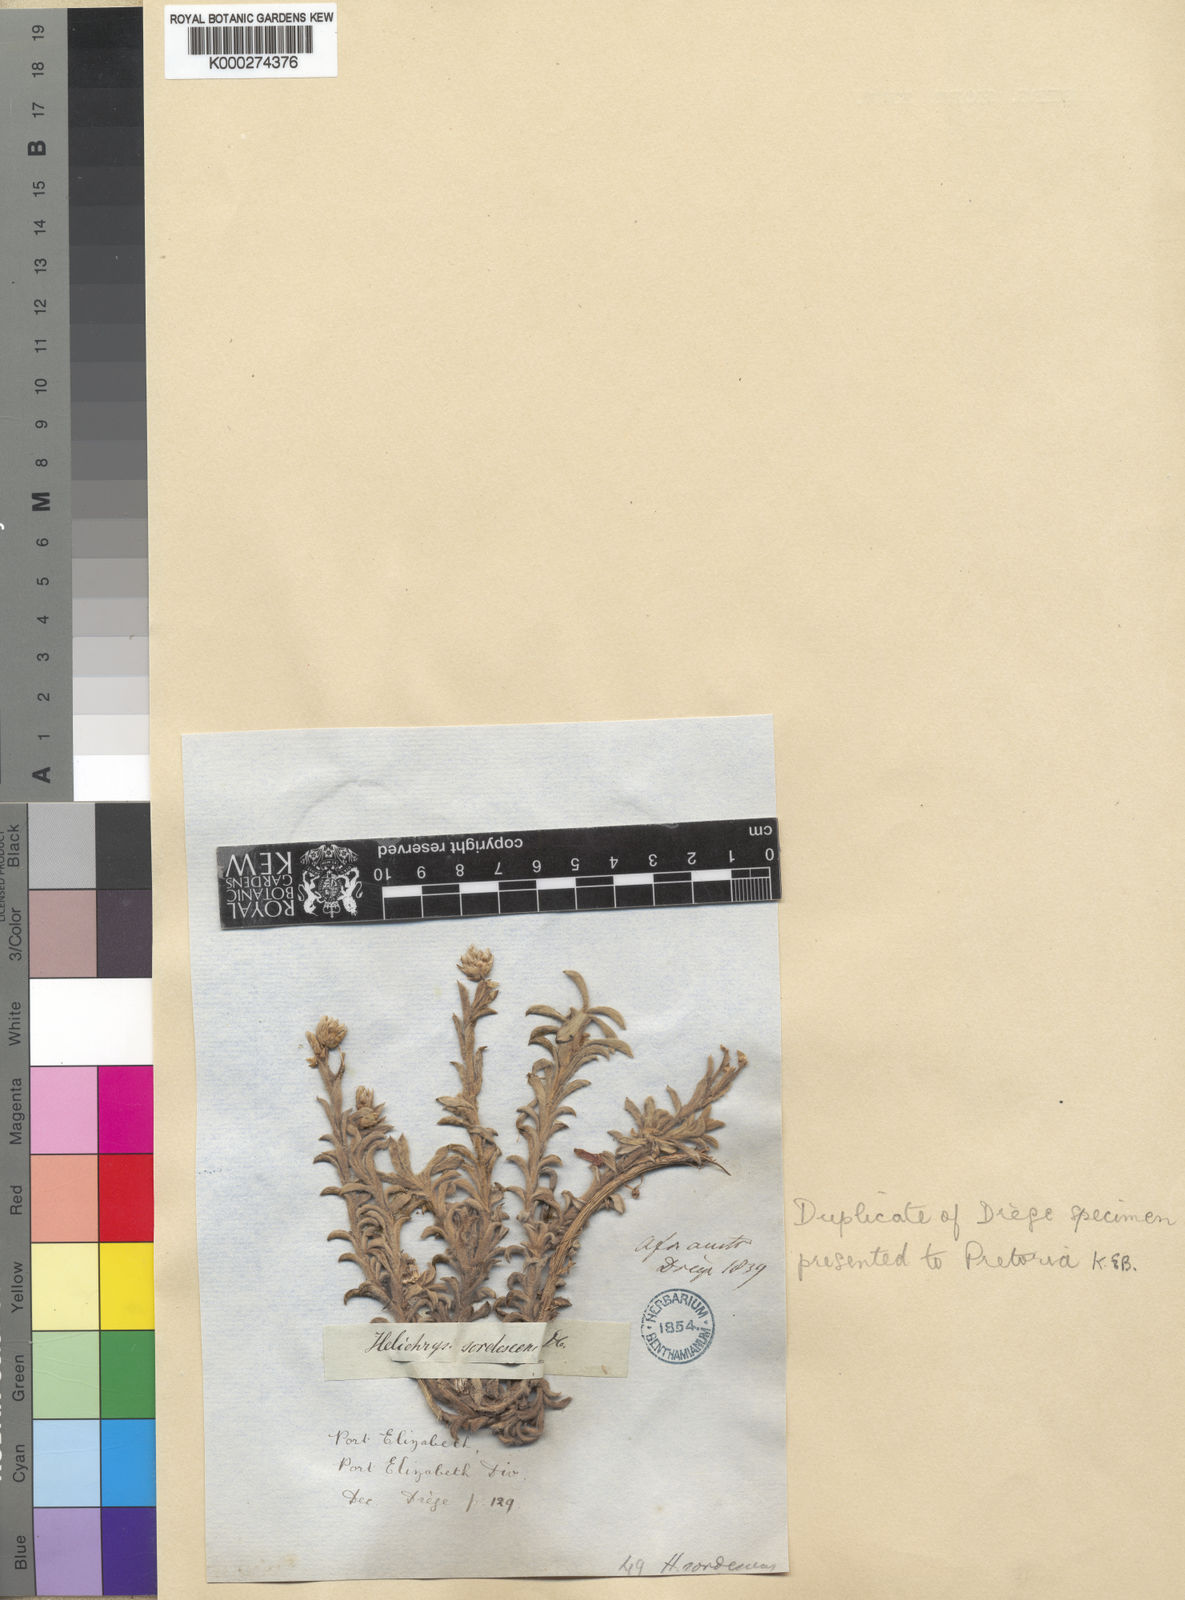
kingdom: Plantae
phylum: Tracheophyta
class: Magnoliopsida
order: Asterales
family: Asteraceae
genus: Achyranthemum
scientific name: Achyranthemum sordescens
